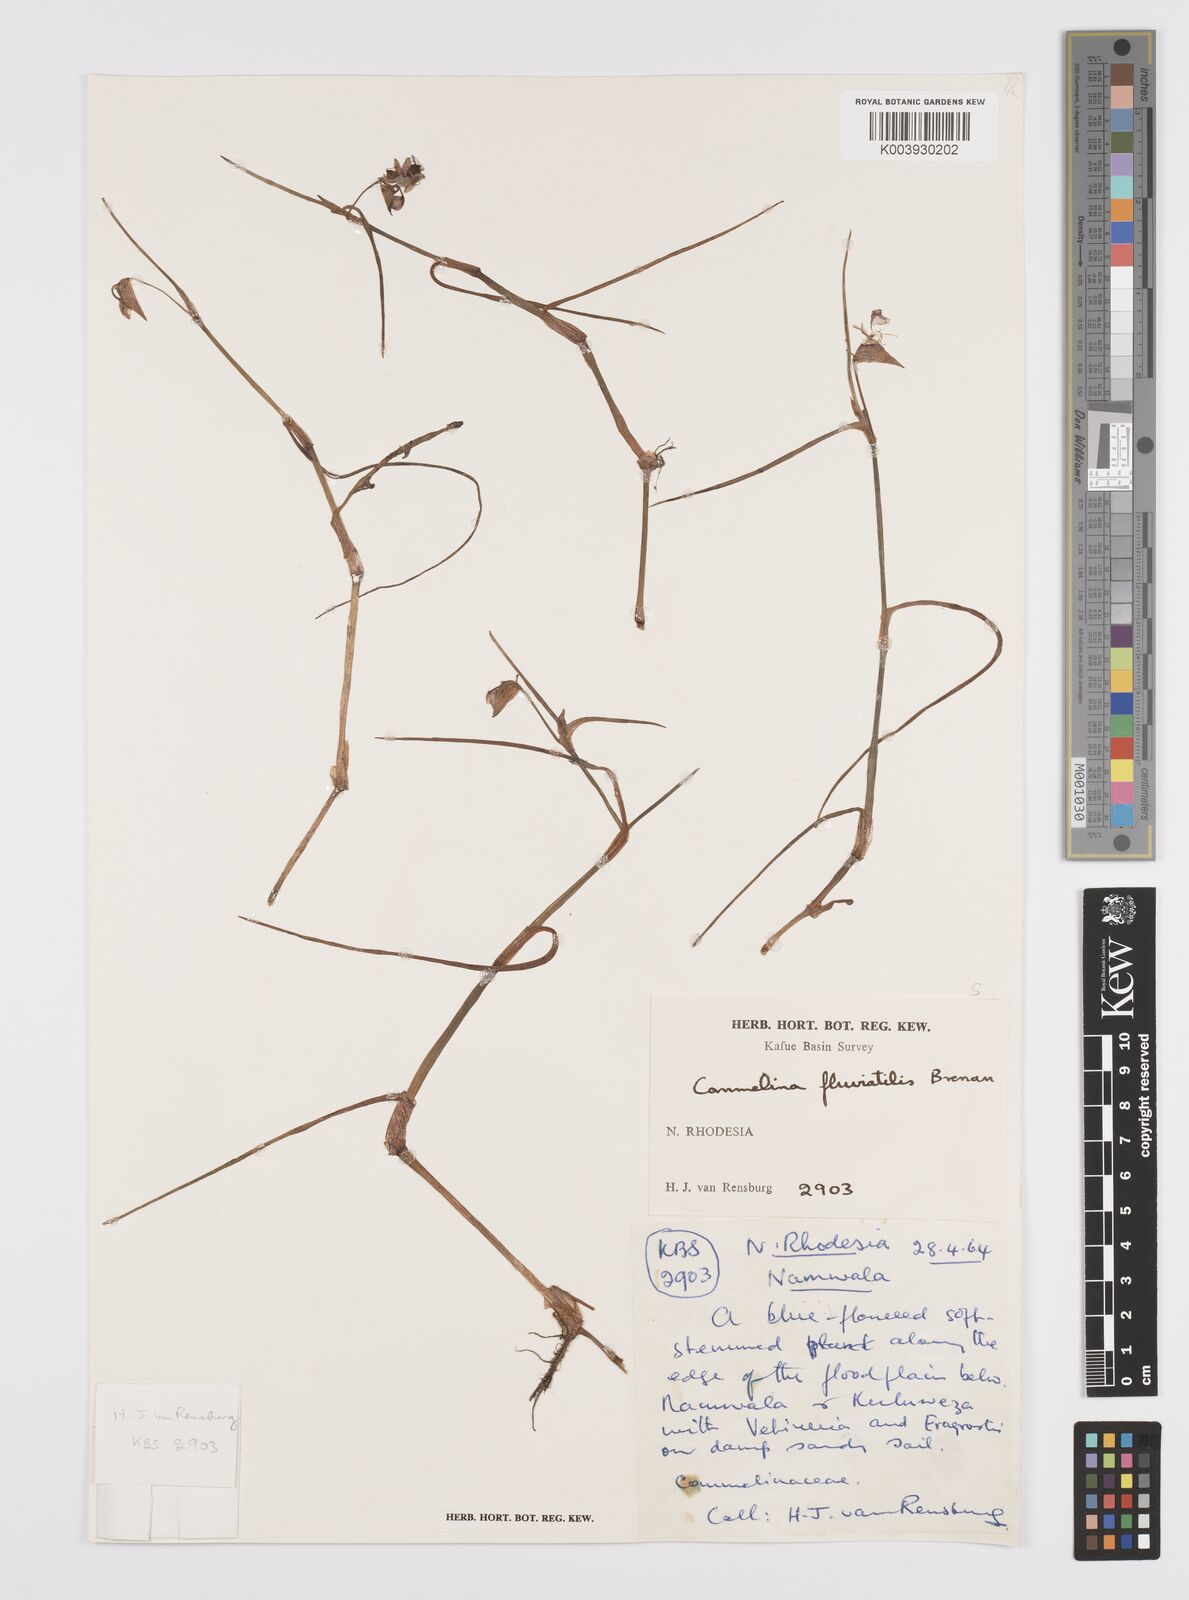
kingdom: Plantae
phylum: Tracheophyta
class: Liliopsida
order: Commelinales
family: Commelinaceae
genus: Commelina
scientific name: Commelina fluviatilis
